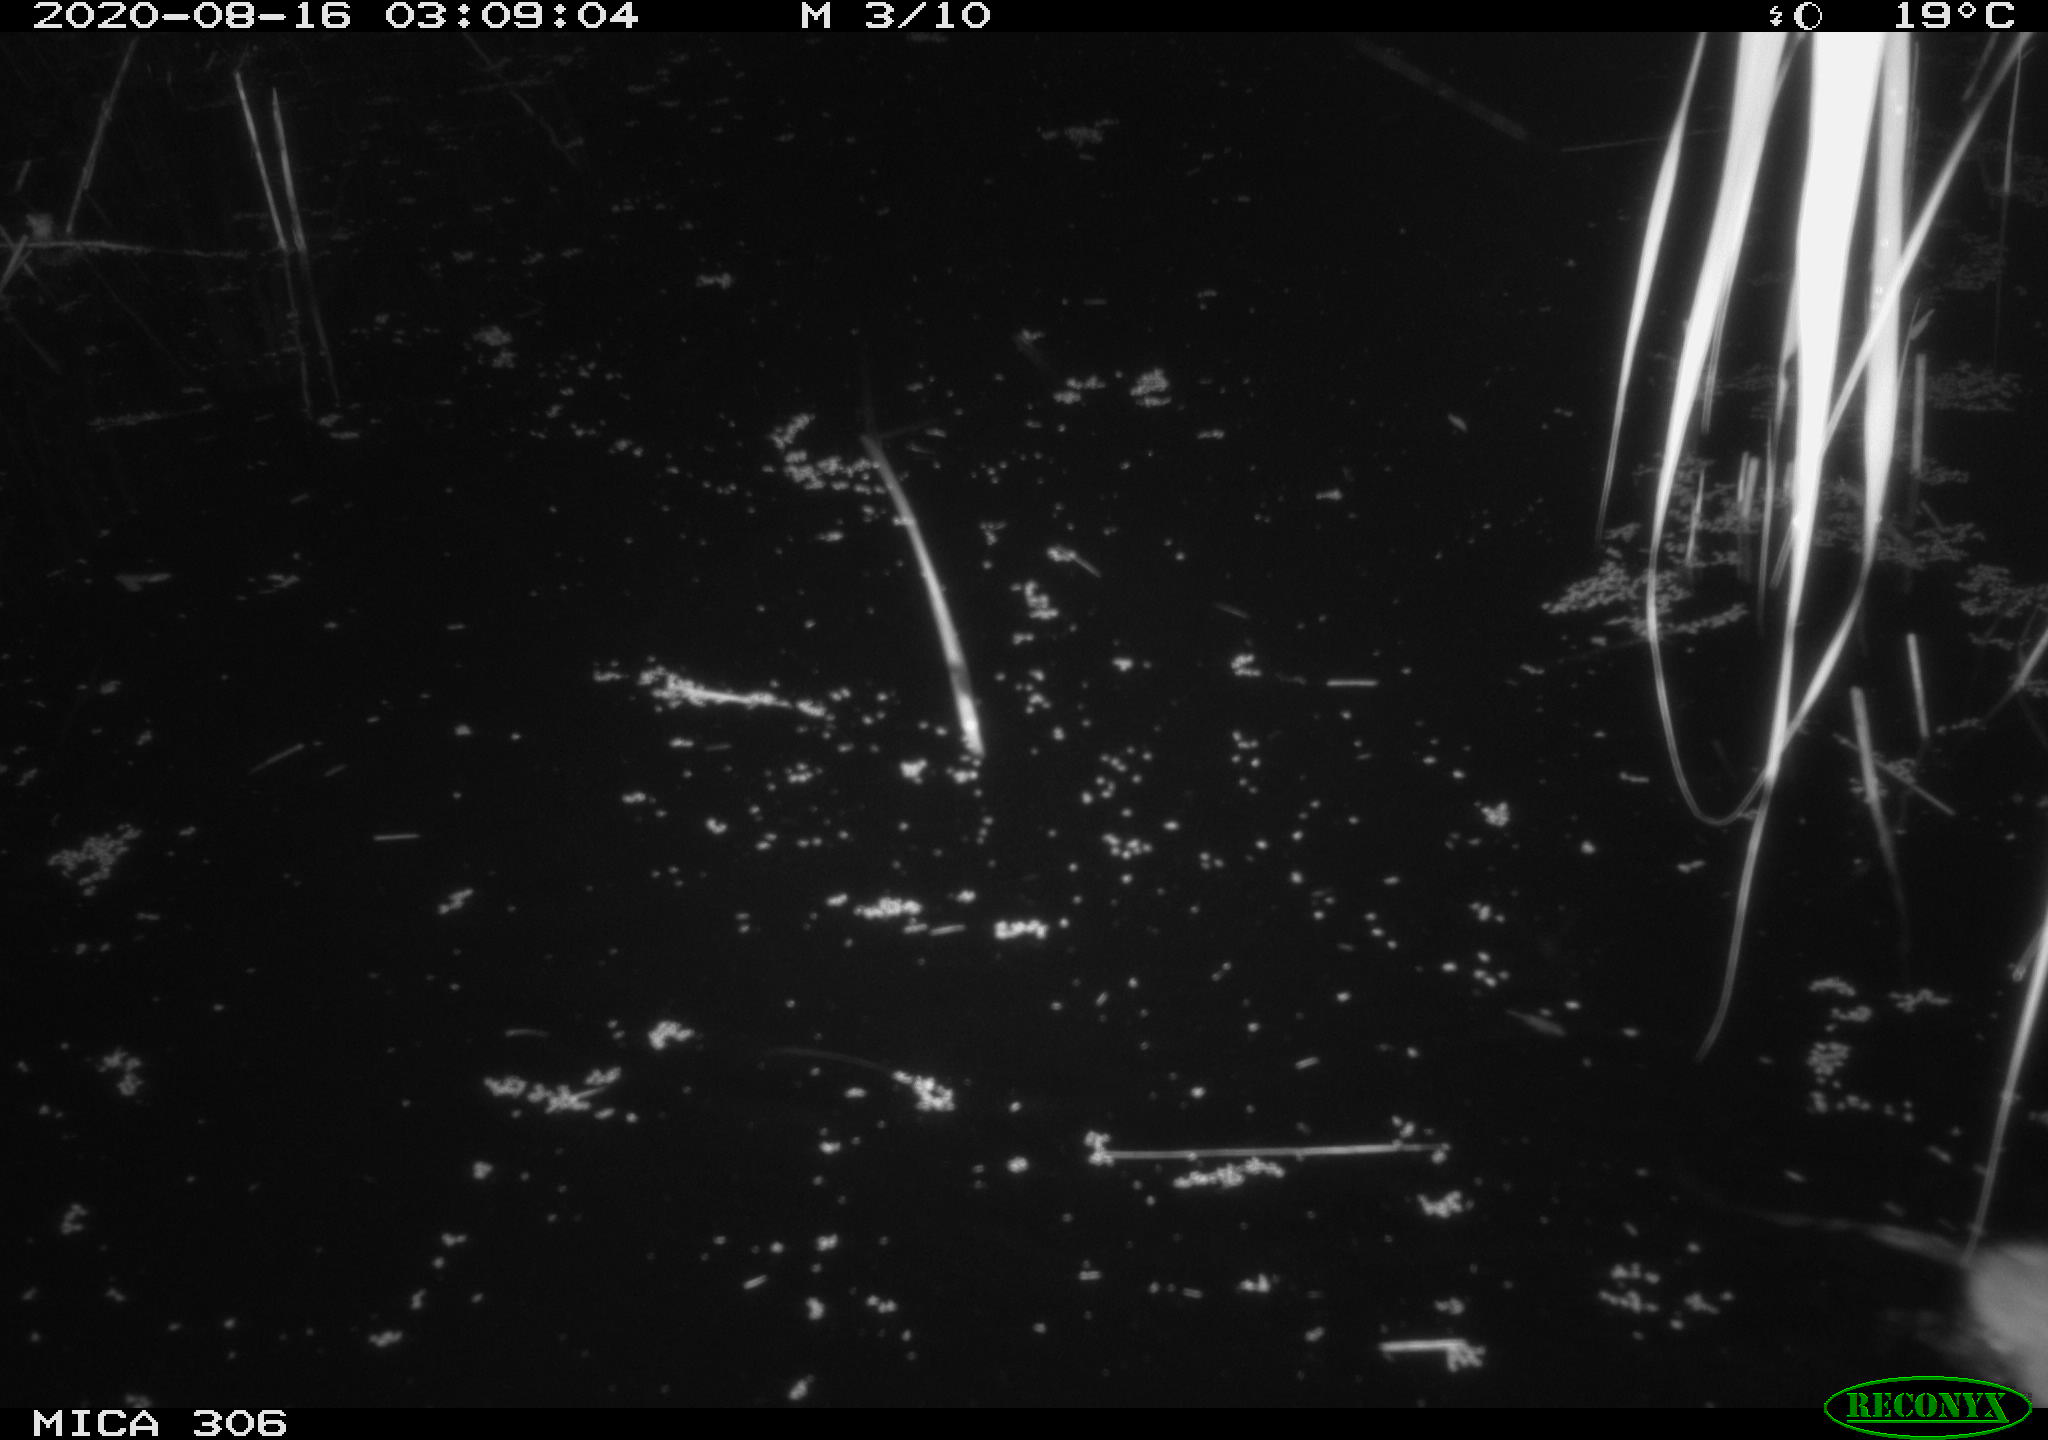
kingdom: Animalia
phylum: Chordata
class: Mammalia
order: Rodentia
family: Muridae
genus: Rattus
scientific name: Rattus norvegicus
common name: Brown rat
